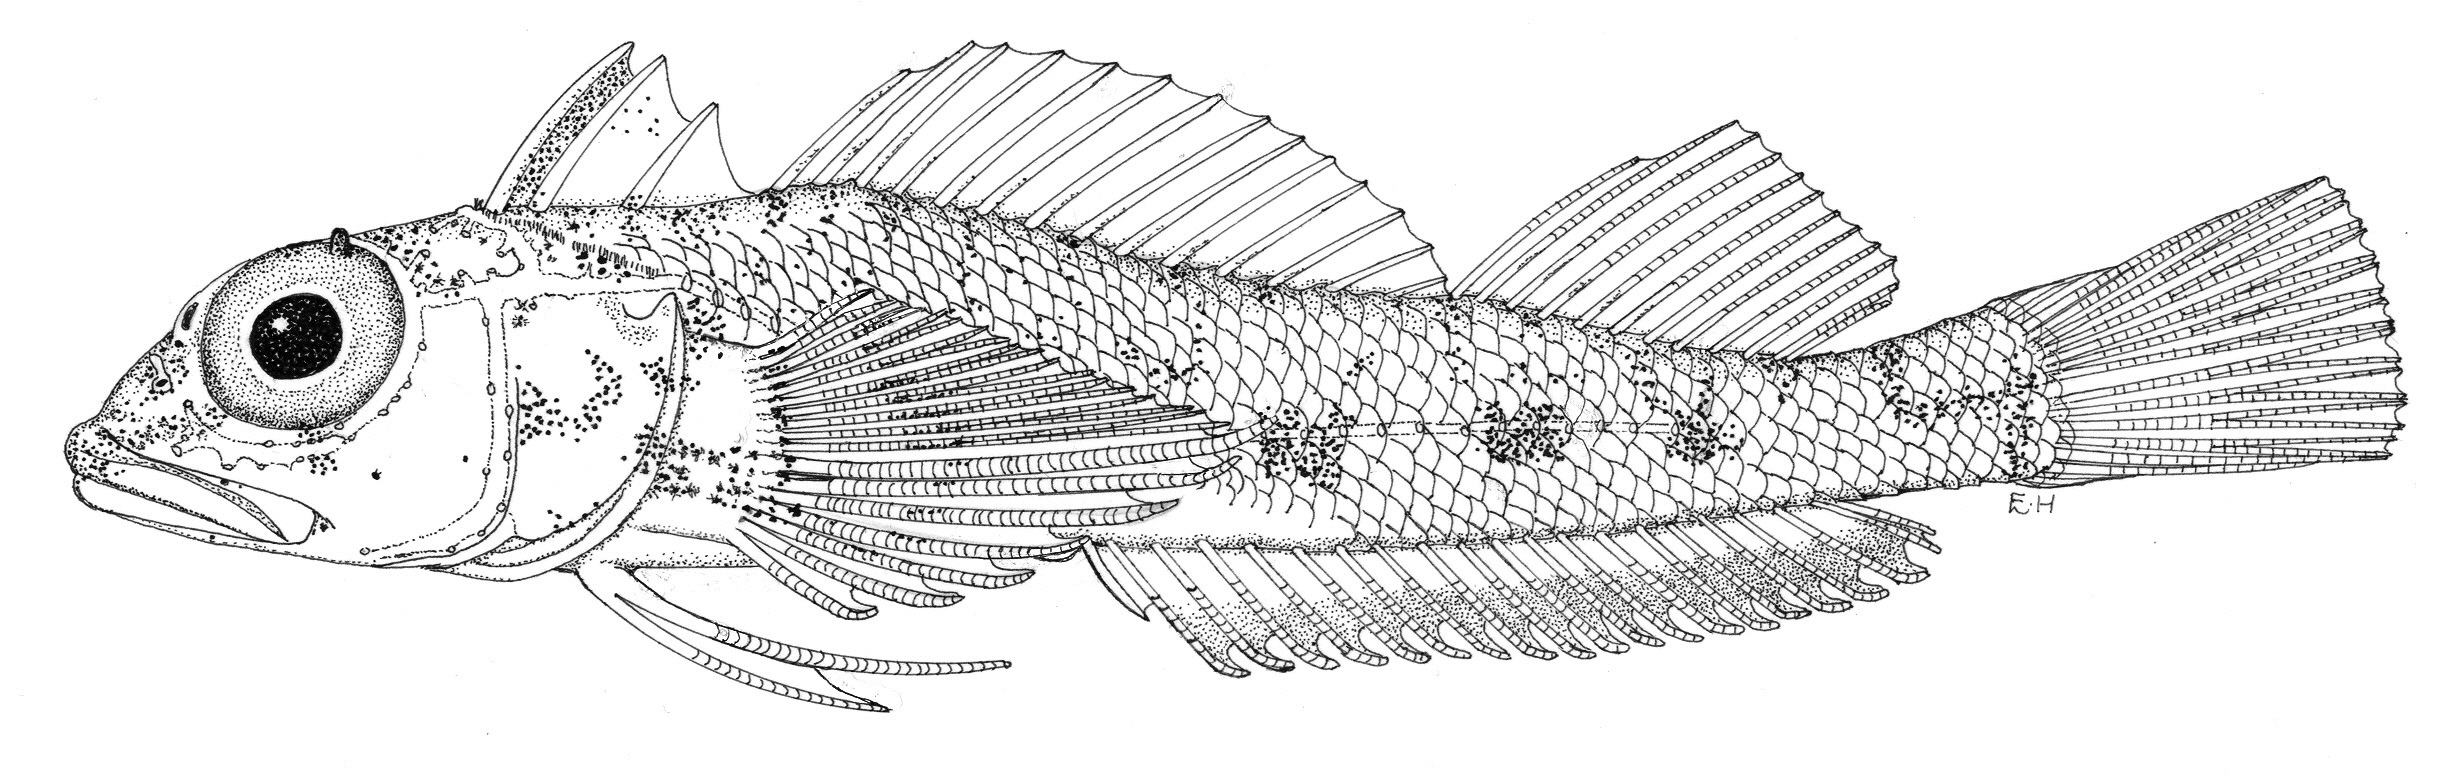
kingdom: Animalia
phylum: Chordata
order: Perciformes
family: Tripterygiidae
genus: Helcogramma
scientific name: Helcogramma rosea
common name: Rosy triplefin
